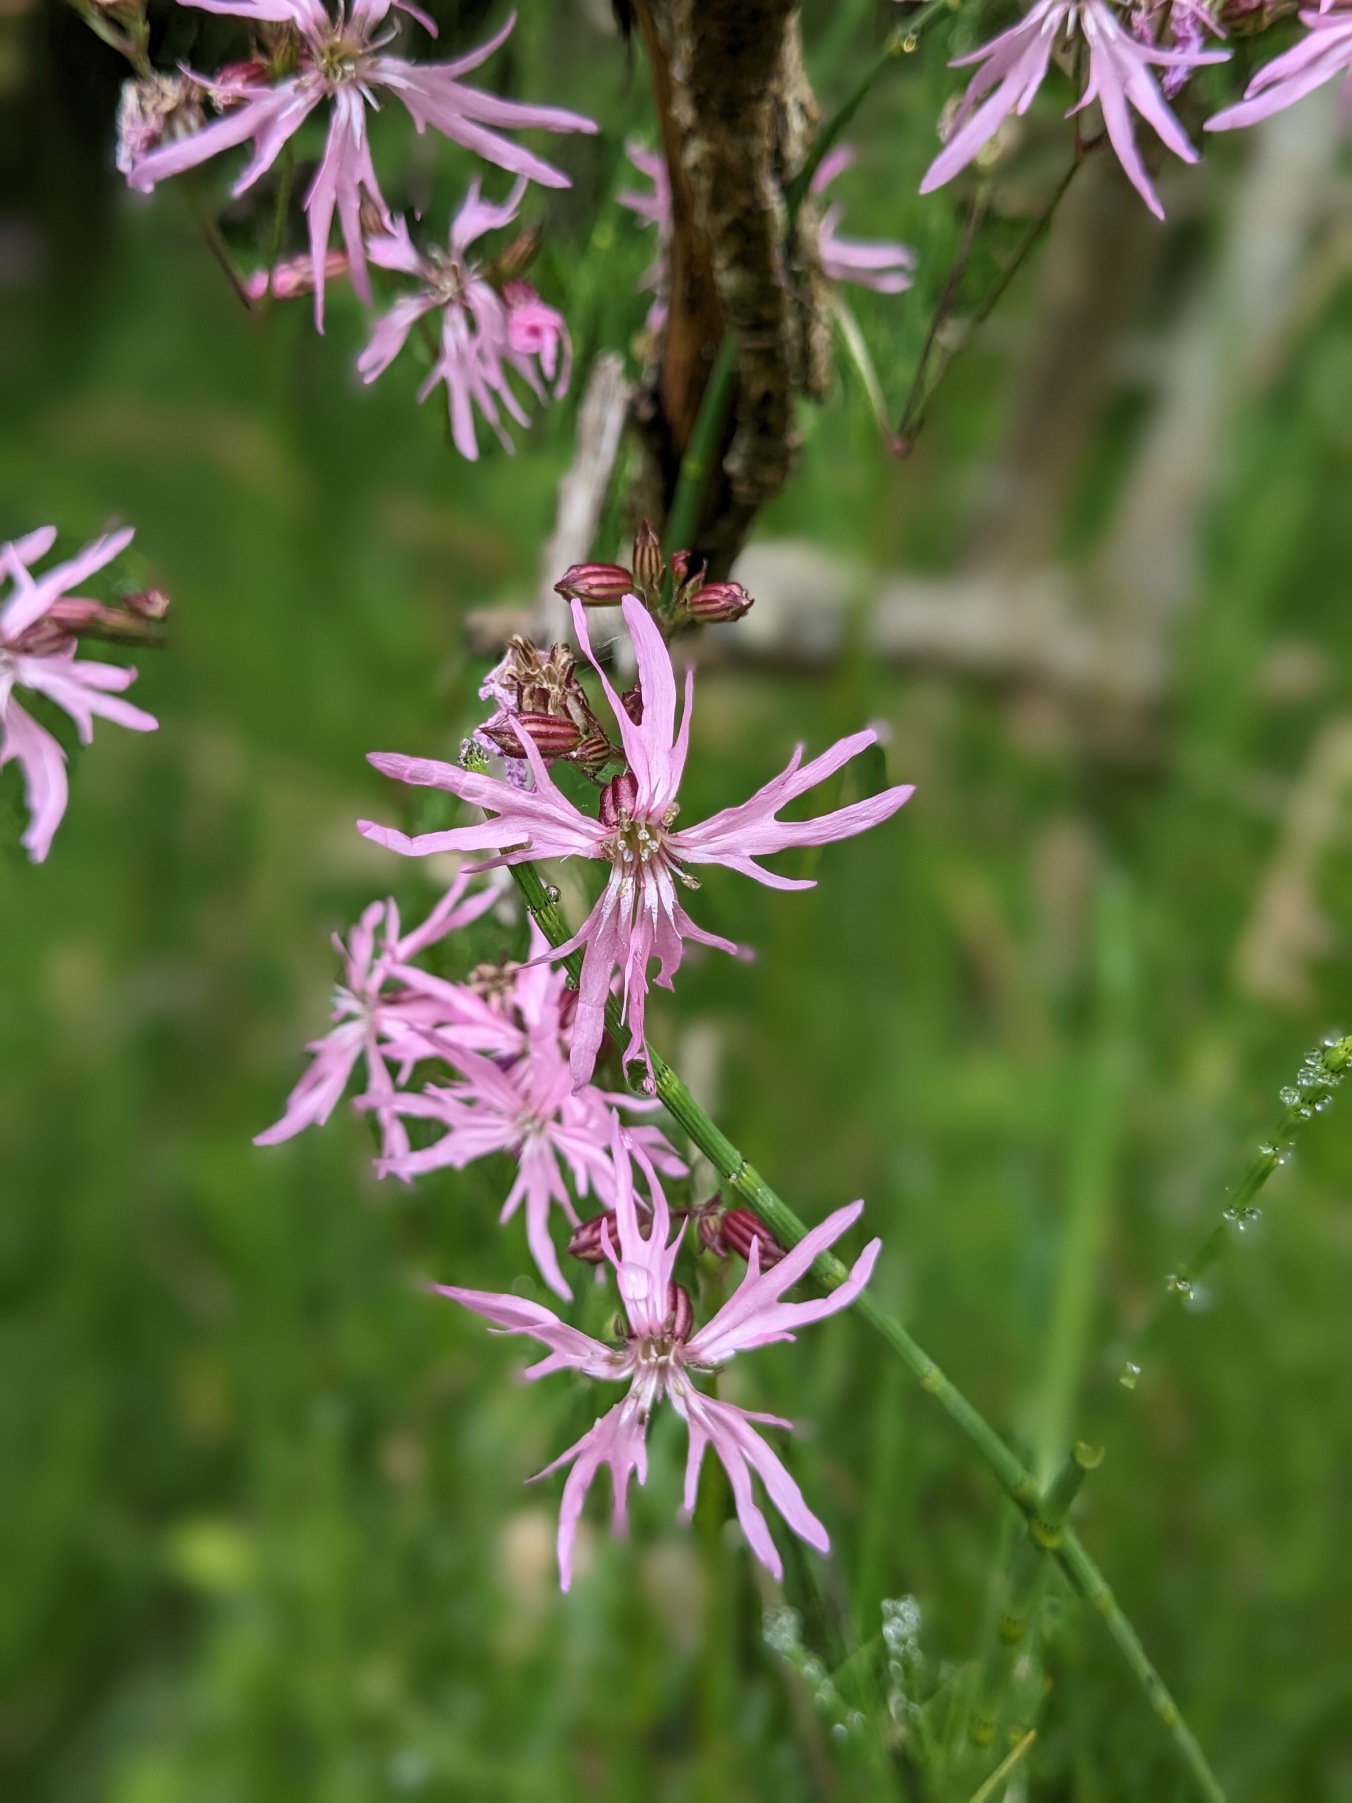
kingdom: Plantae
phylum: Tracheophyta
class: Magnoliopsida
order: Caryophyllales
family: Caryophyllaceae
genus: Silene
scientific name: Silene flos-cuculi
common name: Trævlekrone
